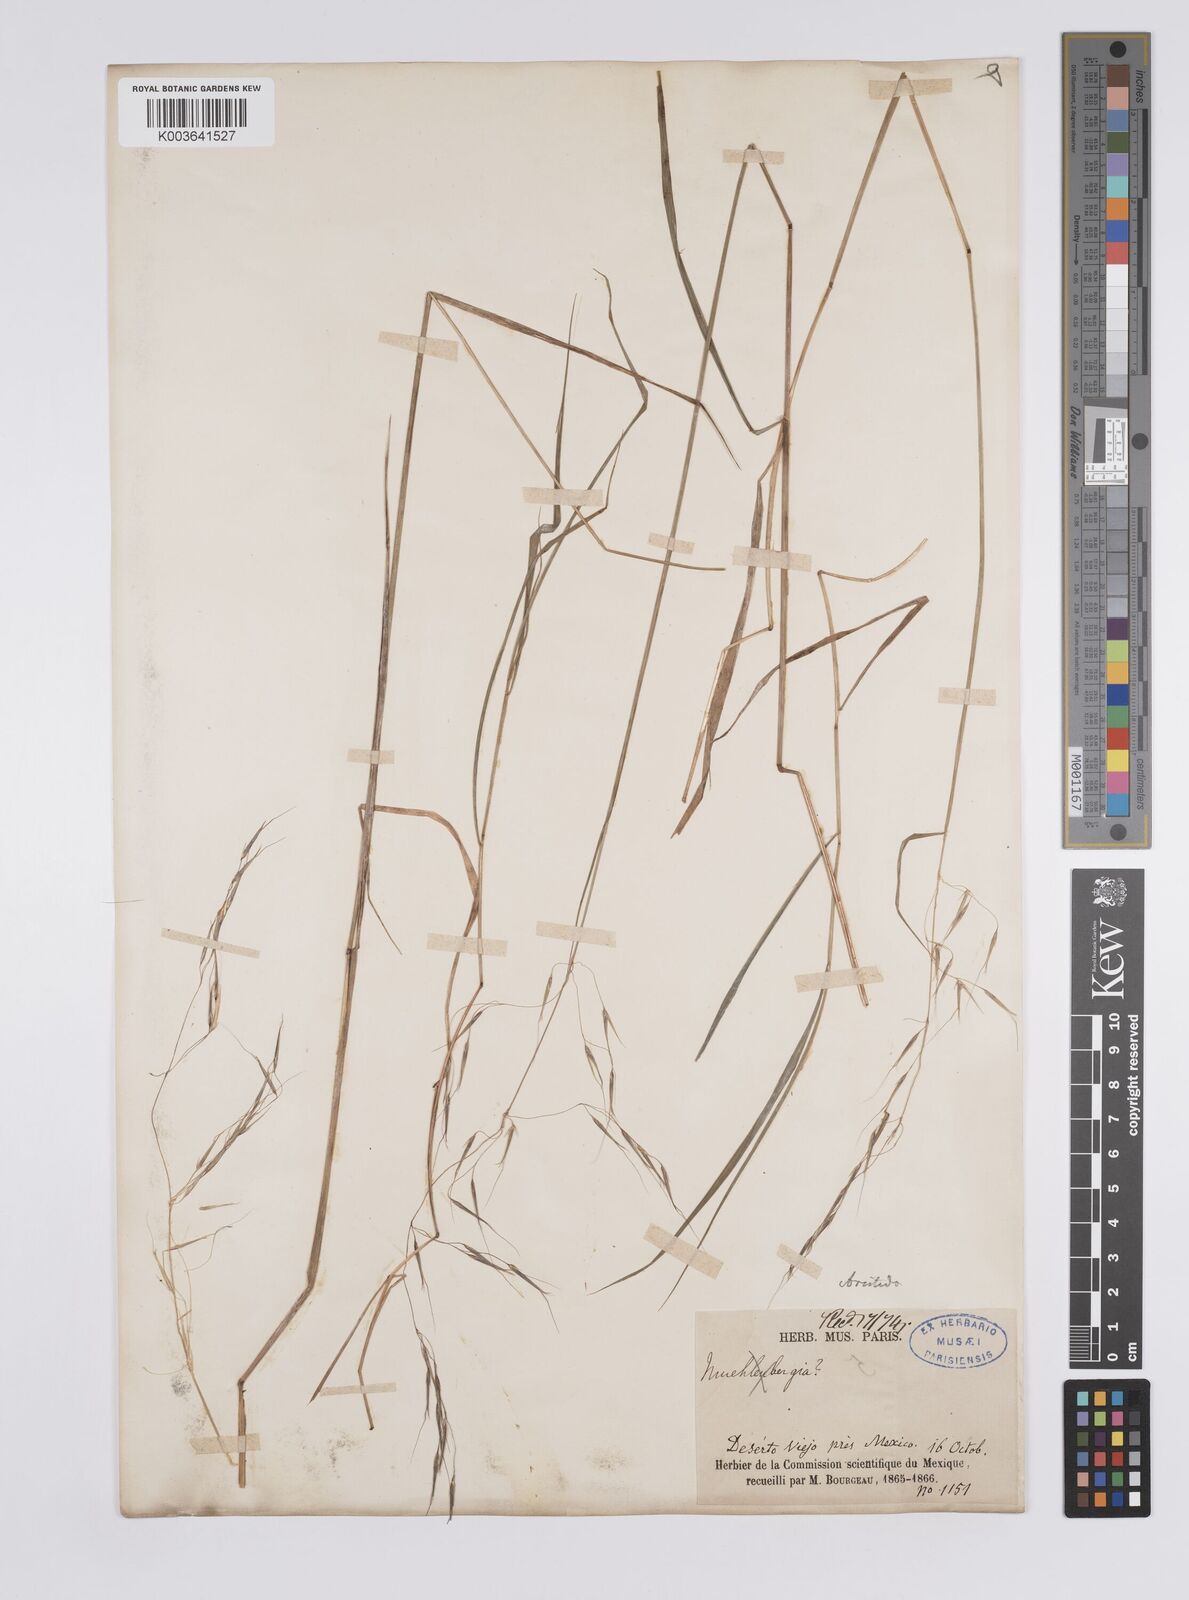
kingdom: Plantae
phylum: Tracheophyta
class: Liliopsida
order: Poales
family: Poaceae
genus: Aristida
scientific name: Aristida
